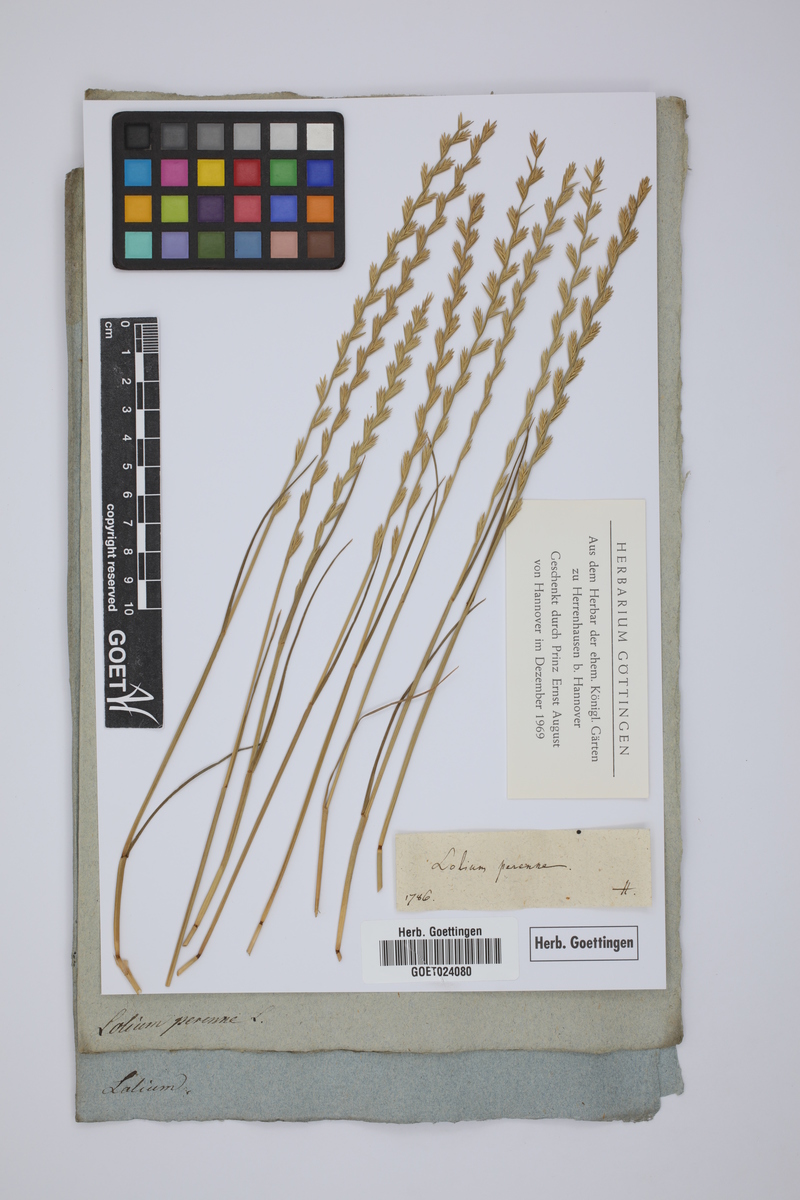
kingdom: Plantae
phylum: Tracheophyta
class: Liliopsida
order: Poales
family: Poaceae
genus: Lolium
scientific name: Lolium perenne
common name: Perennial ryegrass
